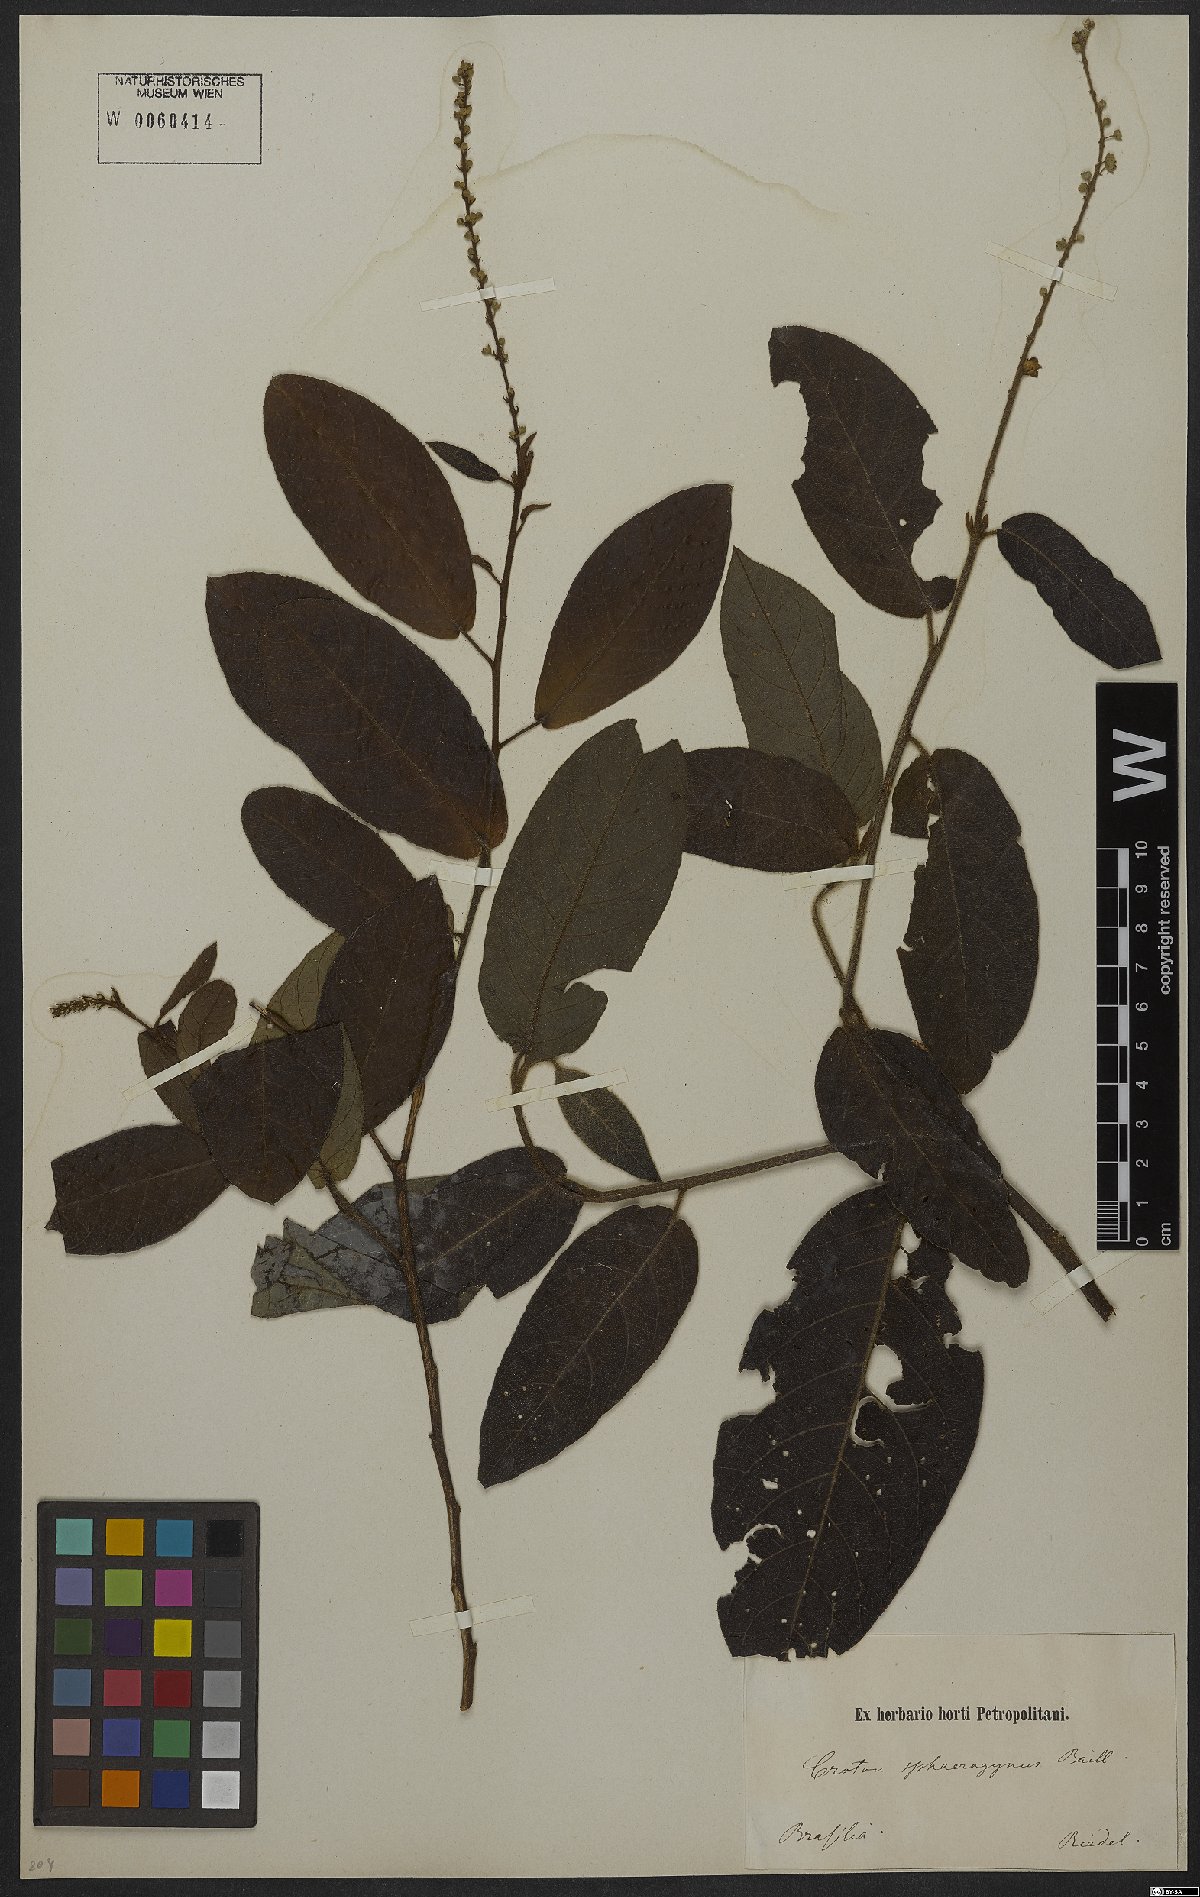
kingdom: Plantae
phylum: Tracheophyta
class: Magnoliopsida
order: Malpighiales
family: Euphorbiaceae
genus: Croton
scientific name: Croton sphaerogynus
